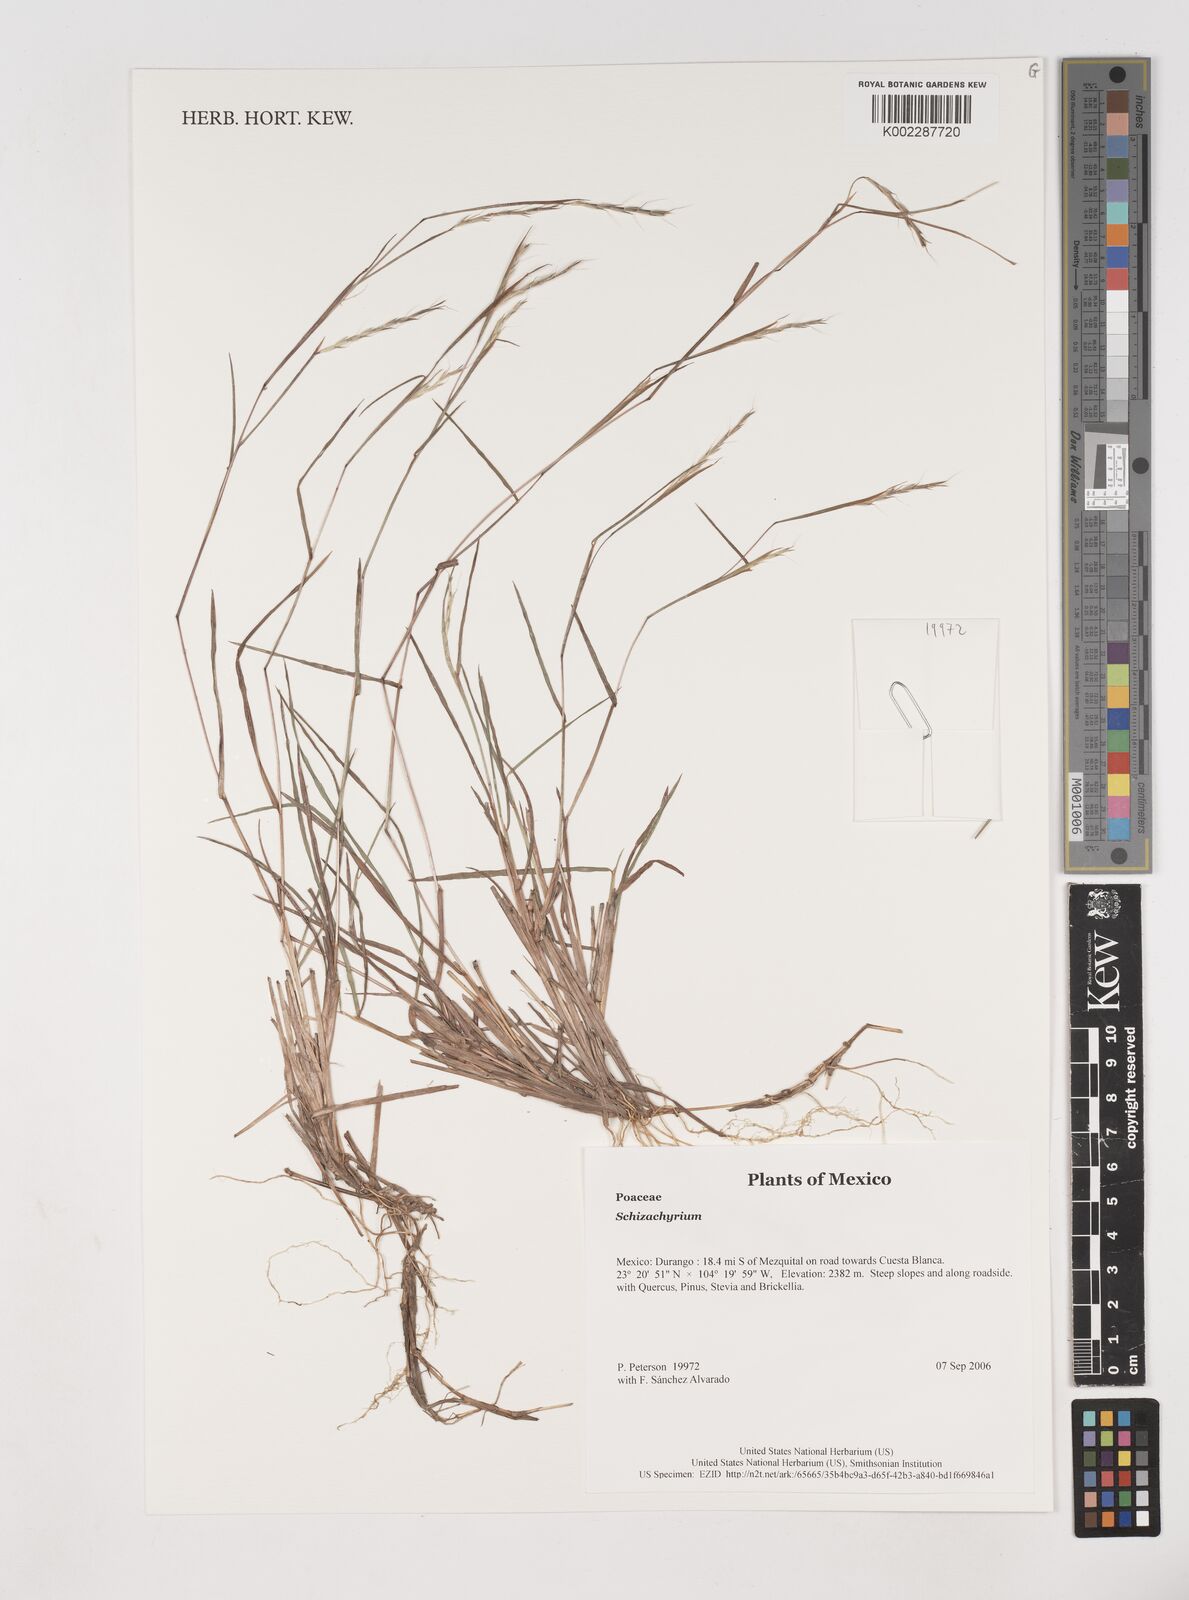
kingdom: Plantae
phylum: Tracheophyta
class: Liliopsida
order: Poales
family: Poaceae
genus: Schizachyrium
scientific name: Schizachyrium
